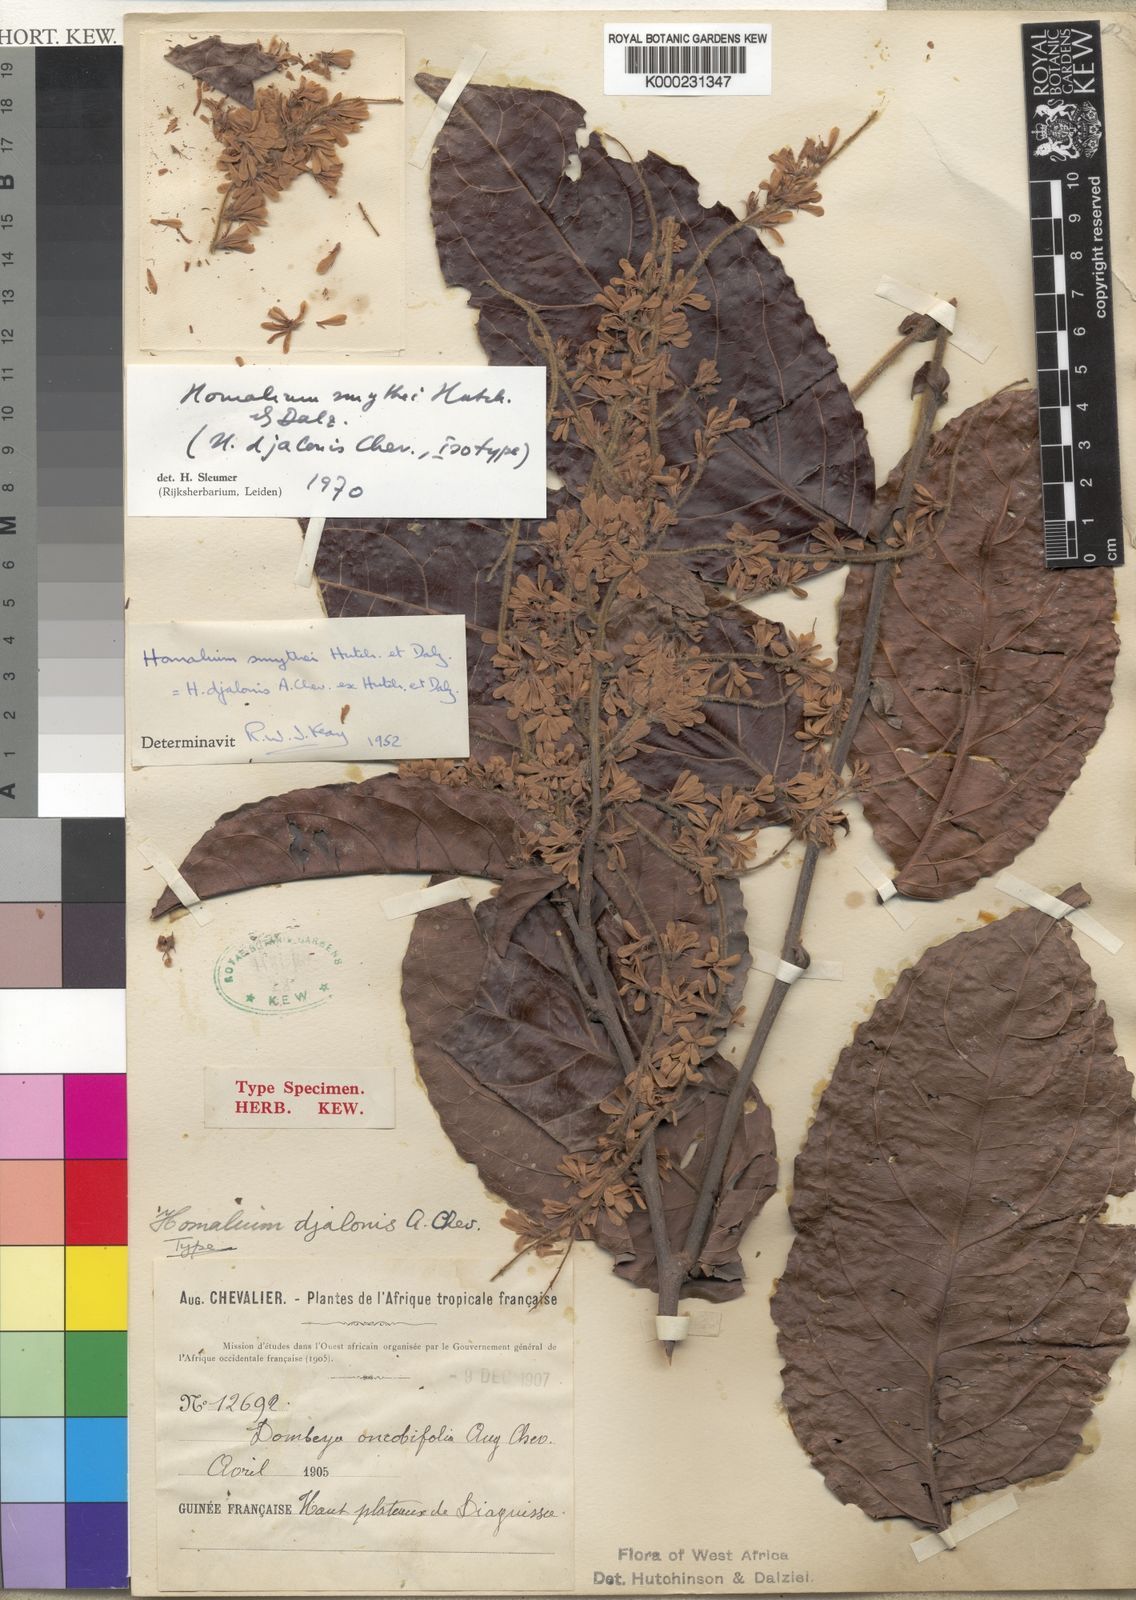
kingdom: Plantae
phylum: Tracheophyta
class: Magnoliopsida
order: Malpighiales
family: Salicaceae
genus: Homalium
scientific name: Homalium smythei
